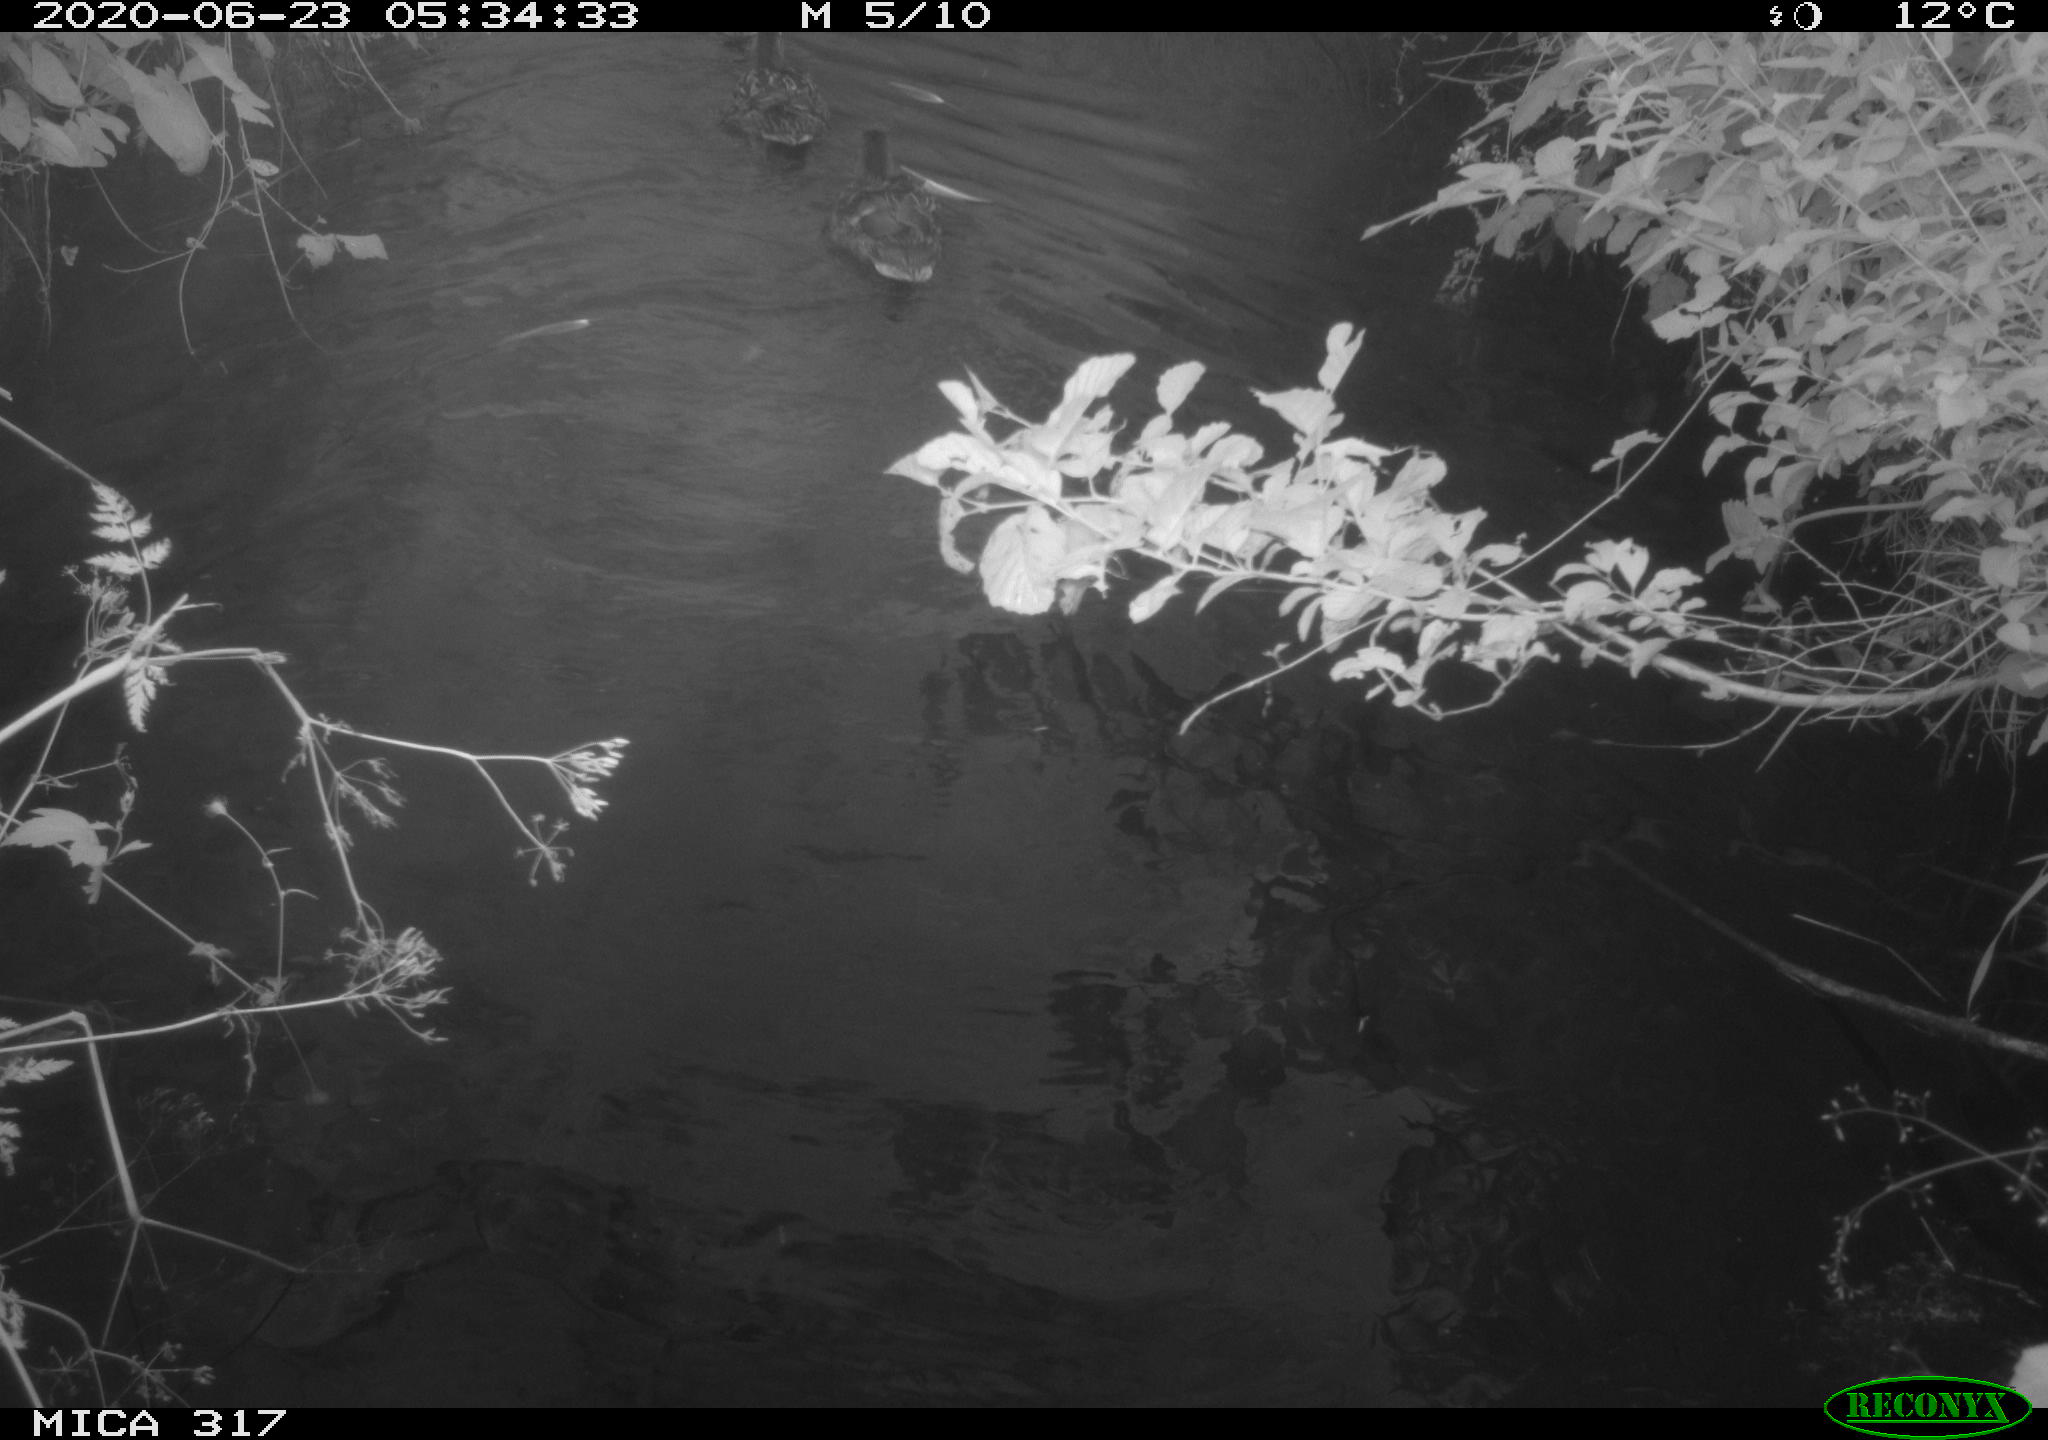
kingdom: Animalia
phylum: Chordata
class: Aves
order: Anseriformes
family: Anatidae
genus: Anas
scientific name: Anas platyrhynchos
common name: Mallard
